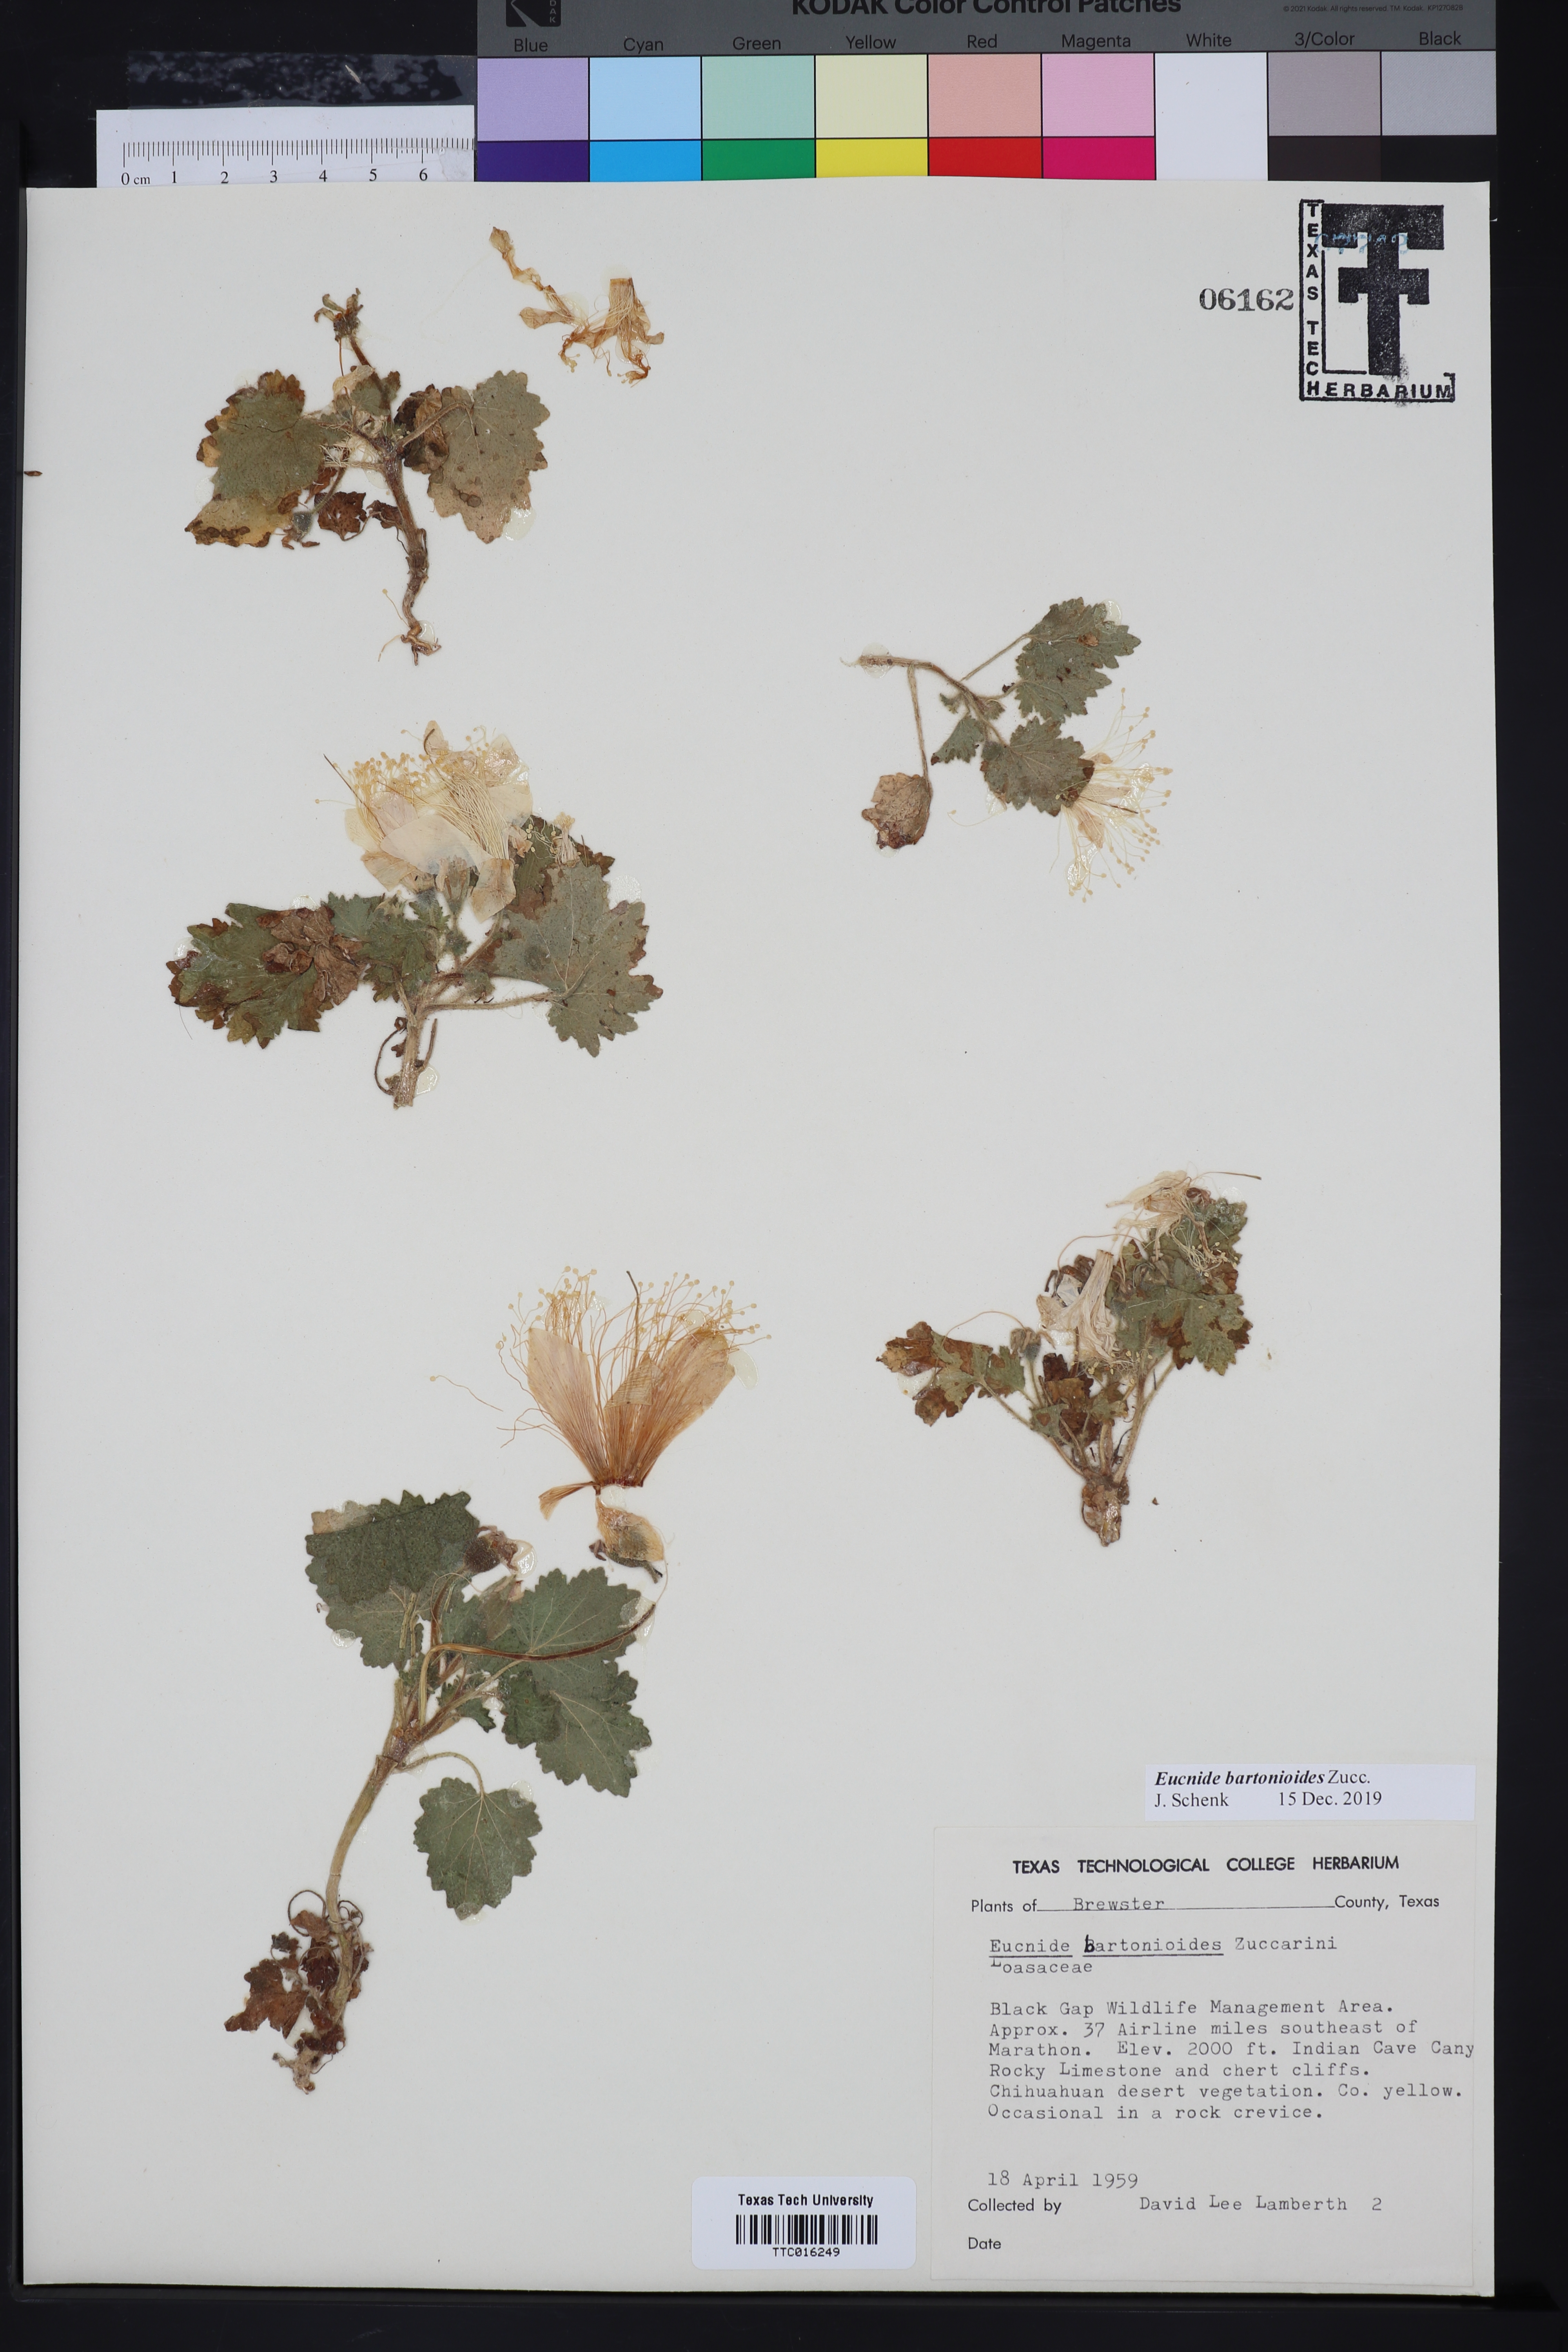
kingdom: Plantae
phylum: Tracheophyta
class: Magnoliopsida
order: Cornales
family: Loasaceae
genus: Eucnide
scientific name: Eucnide bartonioides
